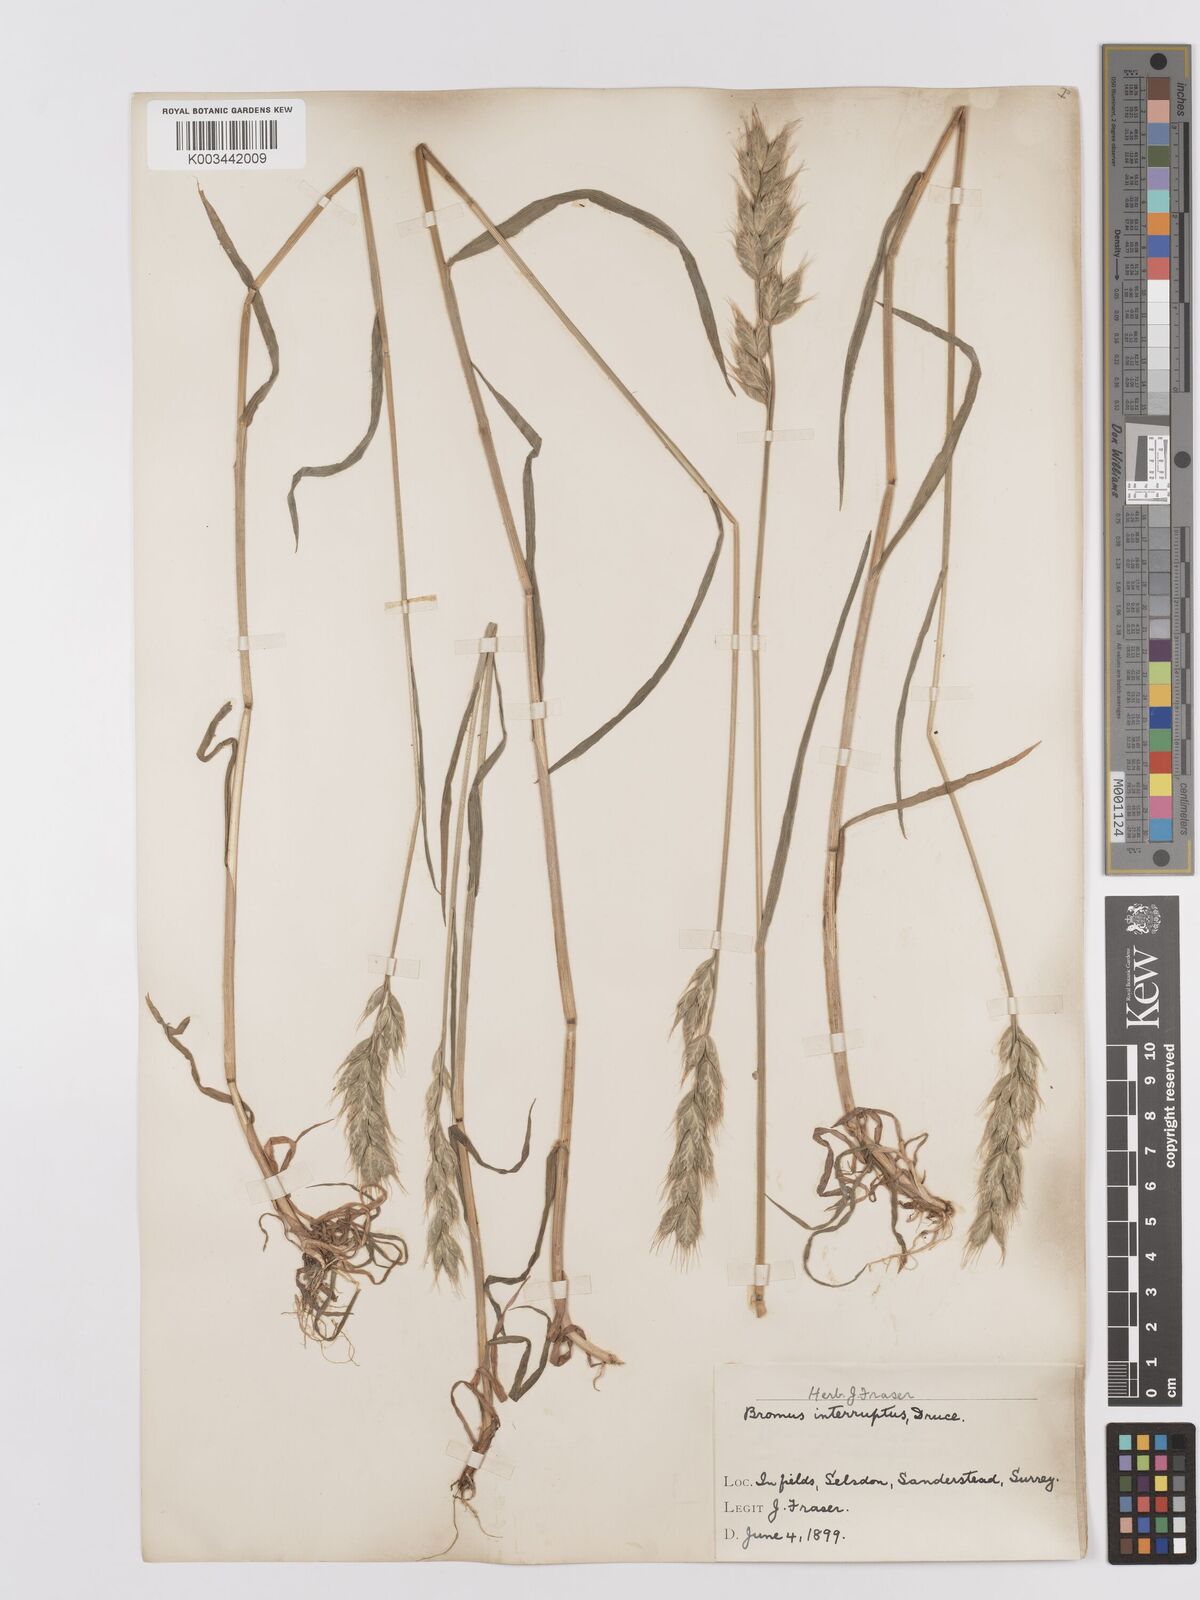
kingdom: Plantae
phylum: Tracheophyta
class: Liliopsida
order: Poales
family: Poaceae
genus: Bromus
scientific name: Bromus interruptus
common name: Interrupted brome
